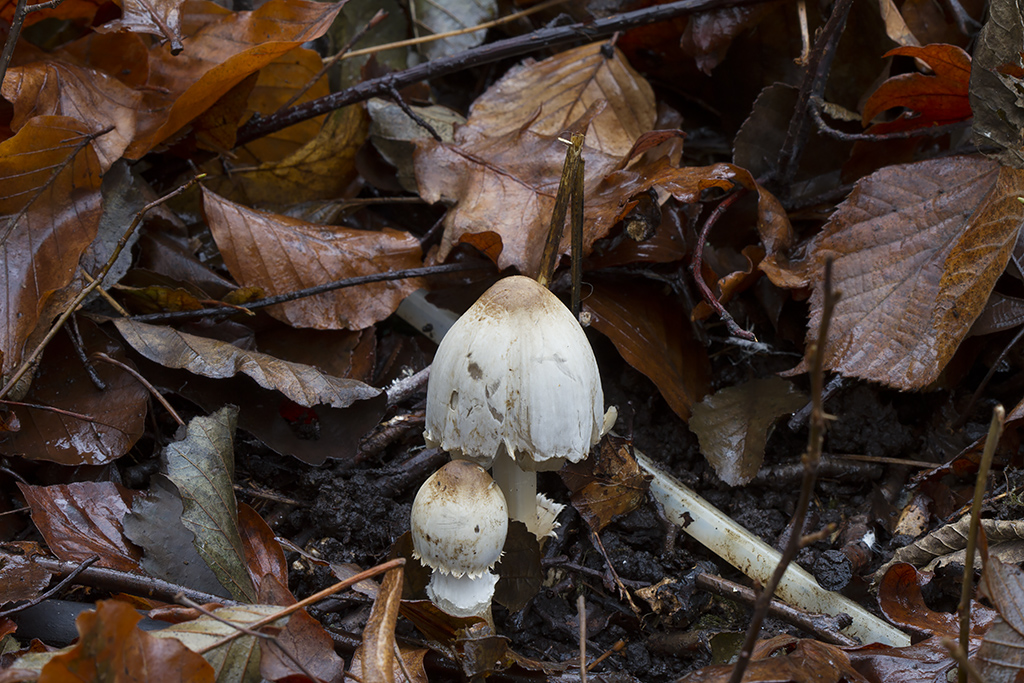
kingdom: Fungi
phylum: Basidiomycota
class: Agaricomycetes
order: Agaricales
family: Psathyrellaceae
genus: Coprinopsis
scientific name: Coprinopsis romagnesiana
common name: brunskællet blækhat
